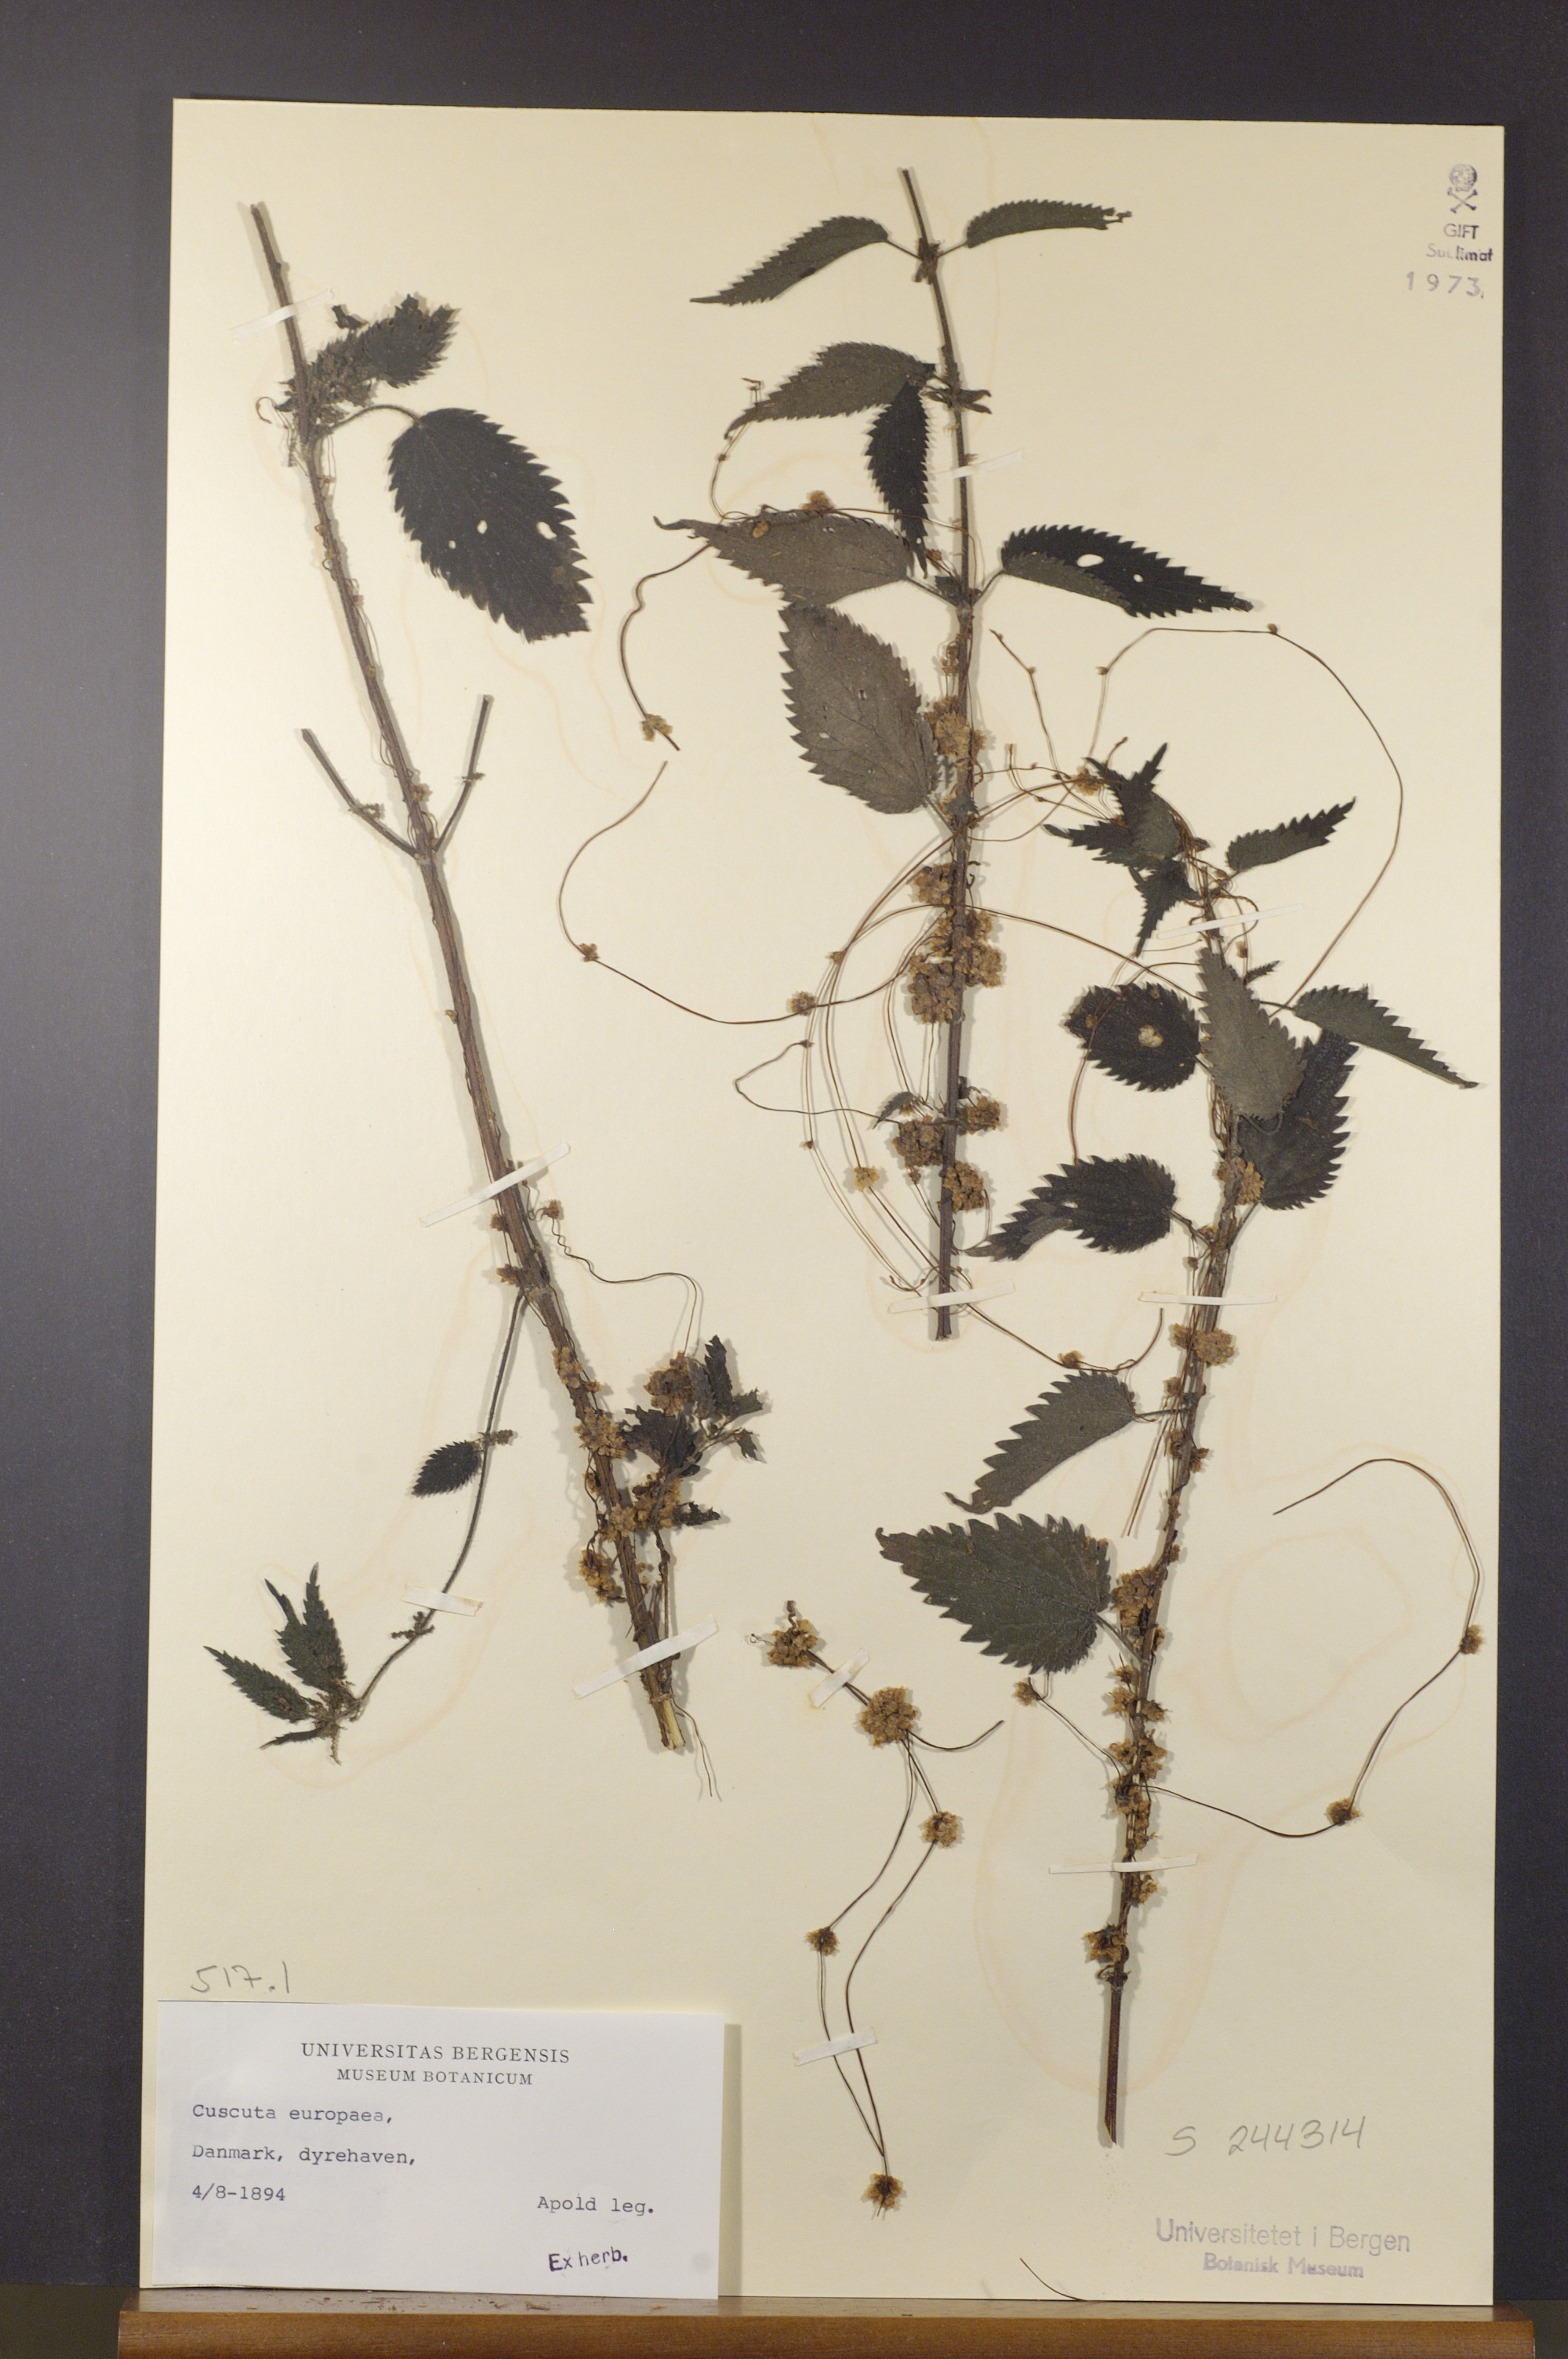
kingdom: Plantae
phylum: Tracheophyta
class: Magnoliopsida
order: Solanales
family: Convolvulaceae
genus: Cuscuta
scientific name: Cuscuta europaea
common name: Greater dodder
